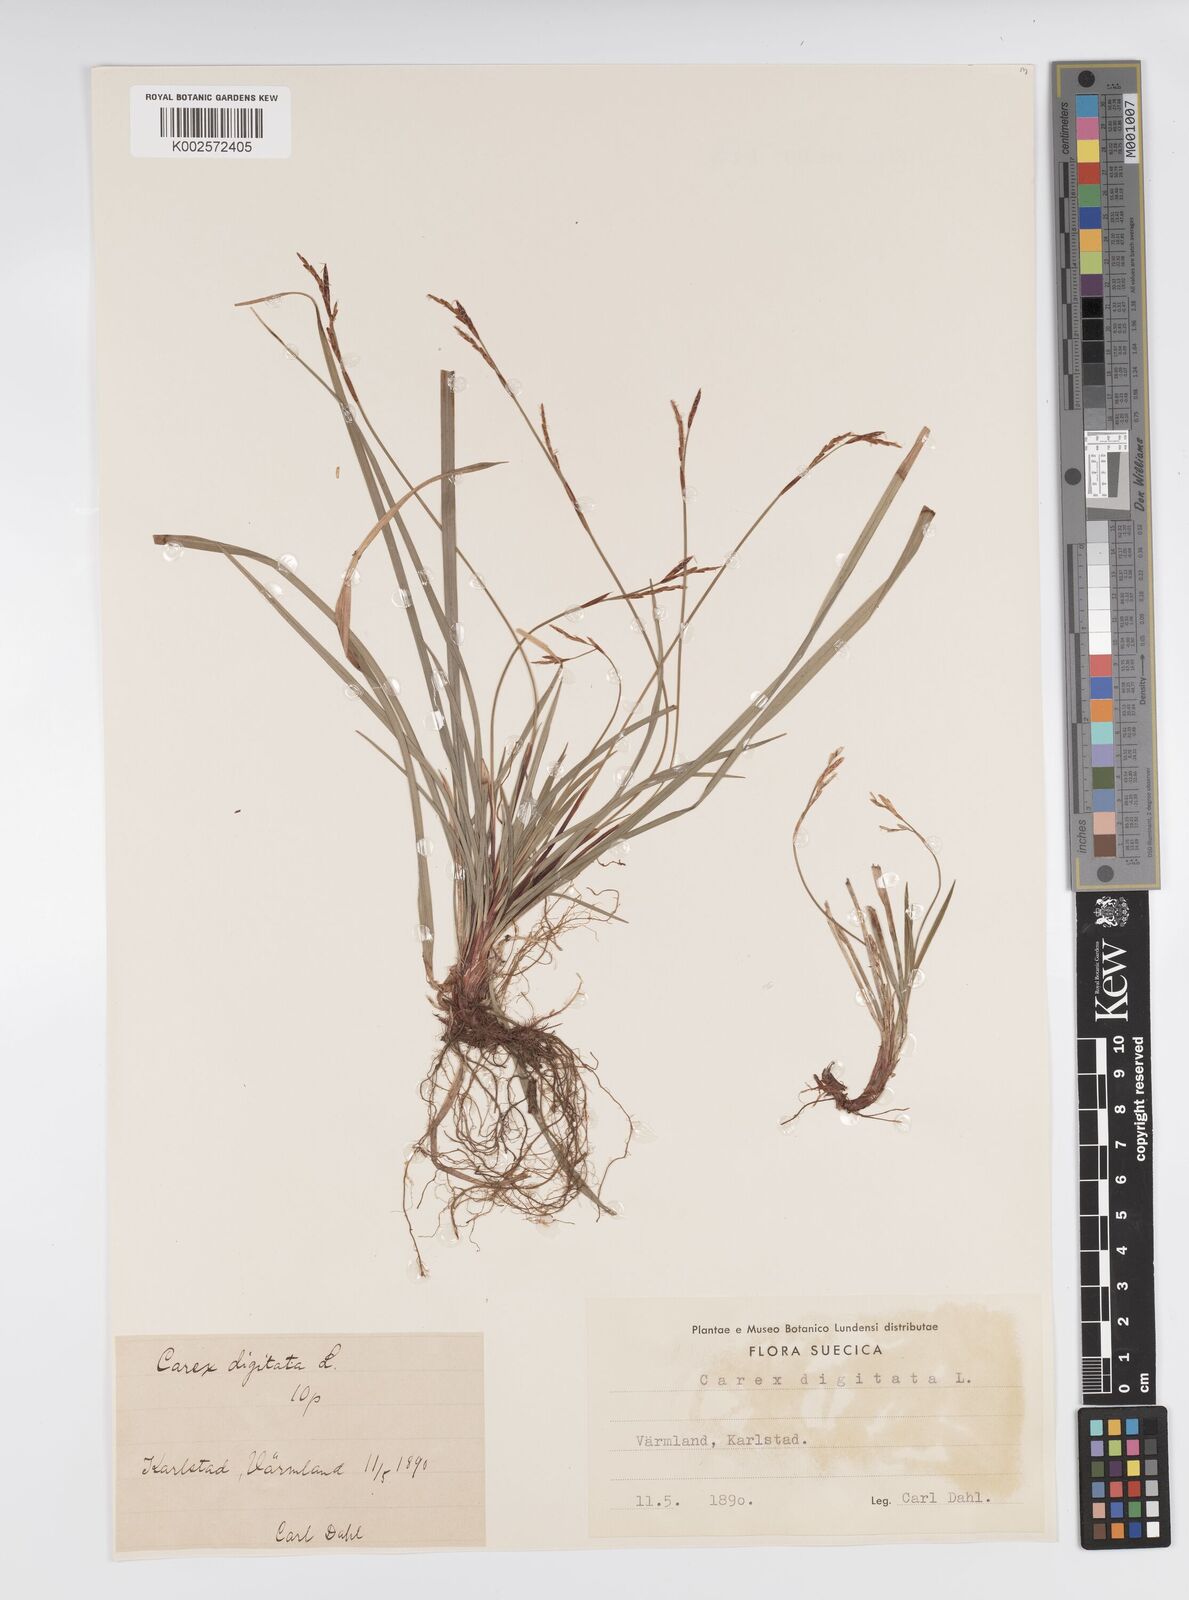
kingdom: Plantae
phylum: Tracheophyta
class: Liliopsida
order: Poales
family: Cyperaceae
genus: Carex
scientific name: Carex digitata
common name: Fingered sedge
